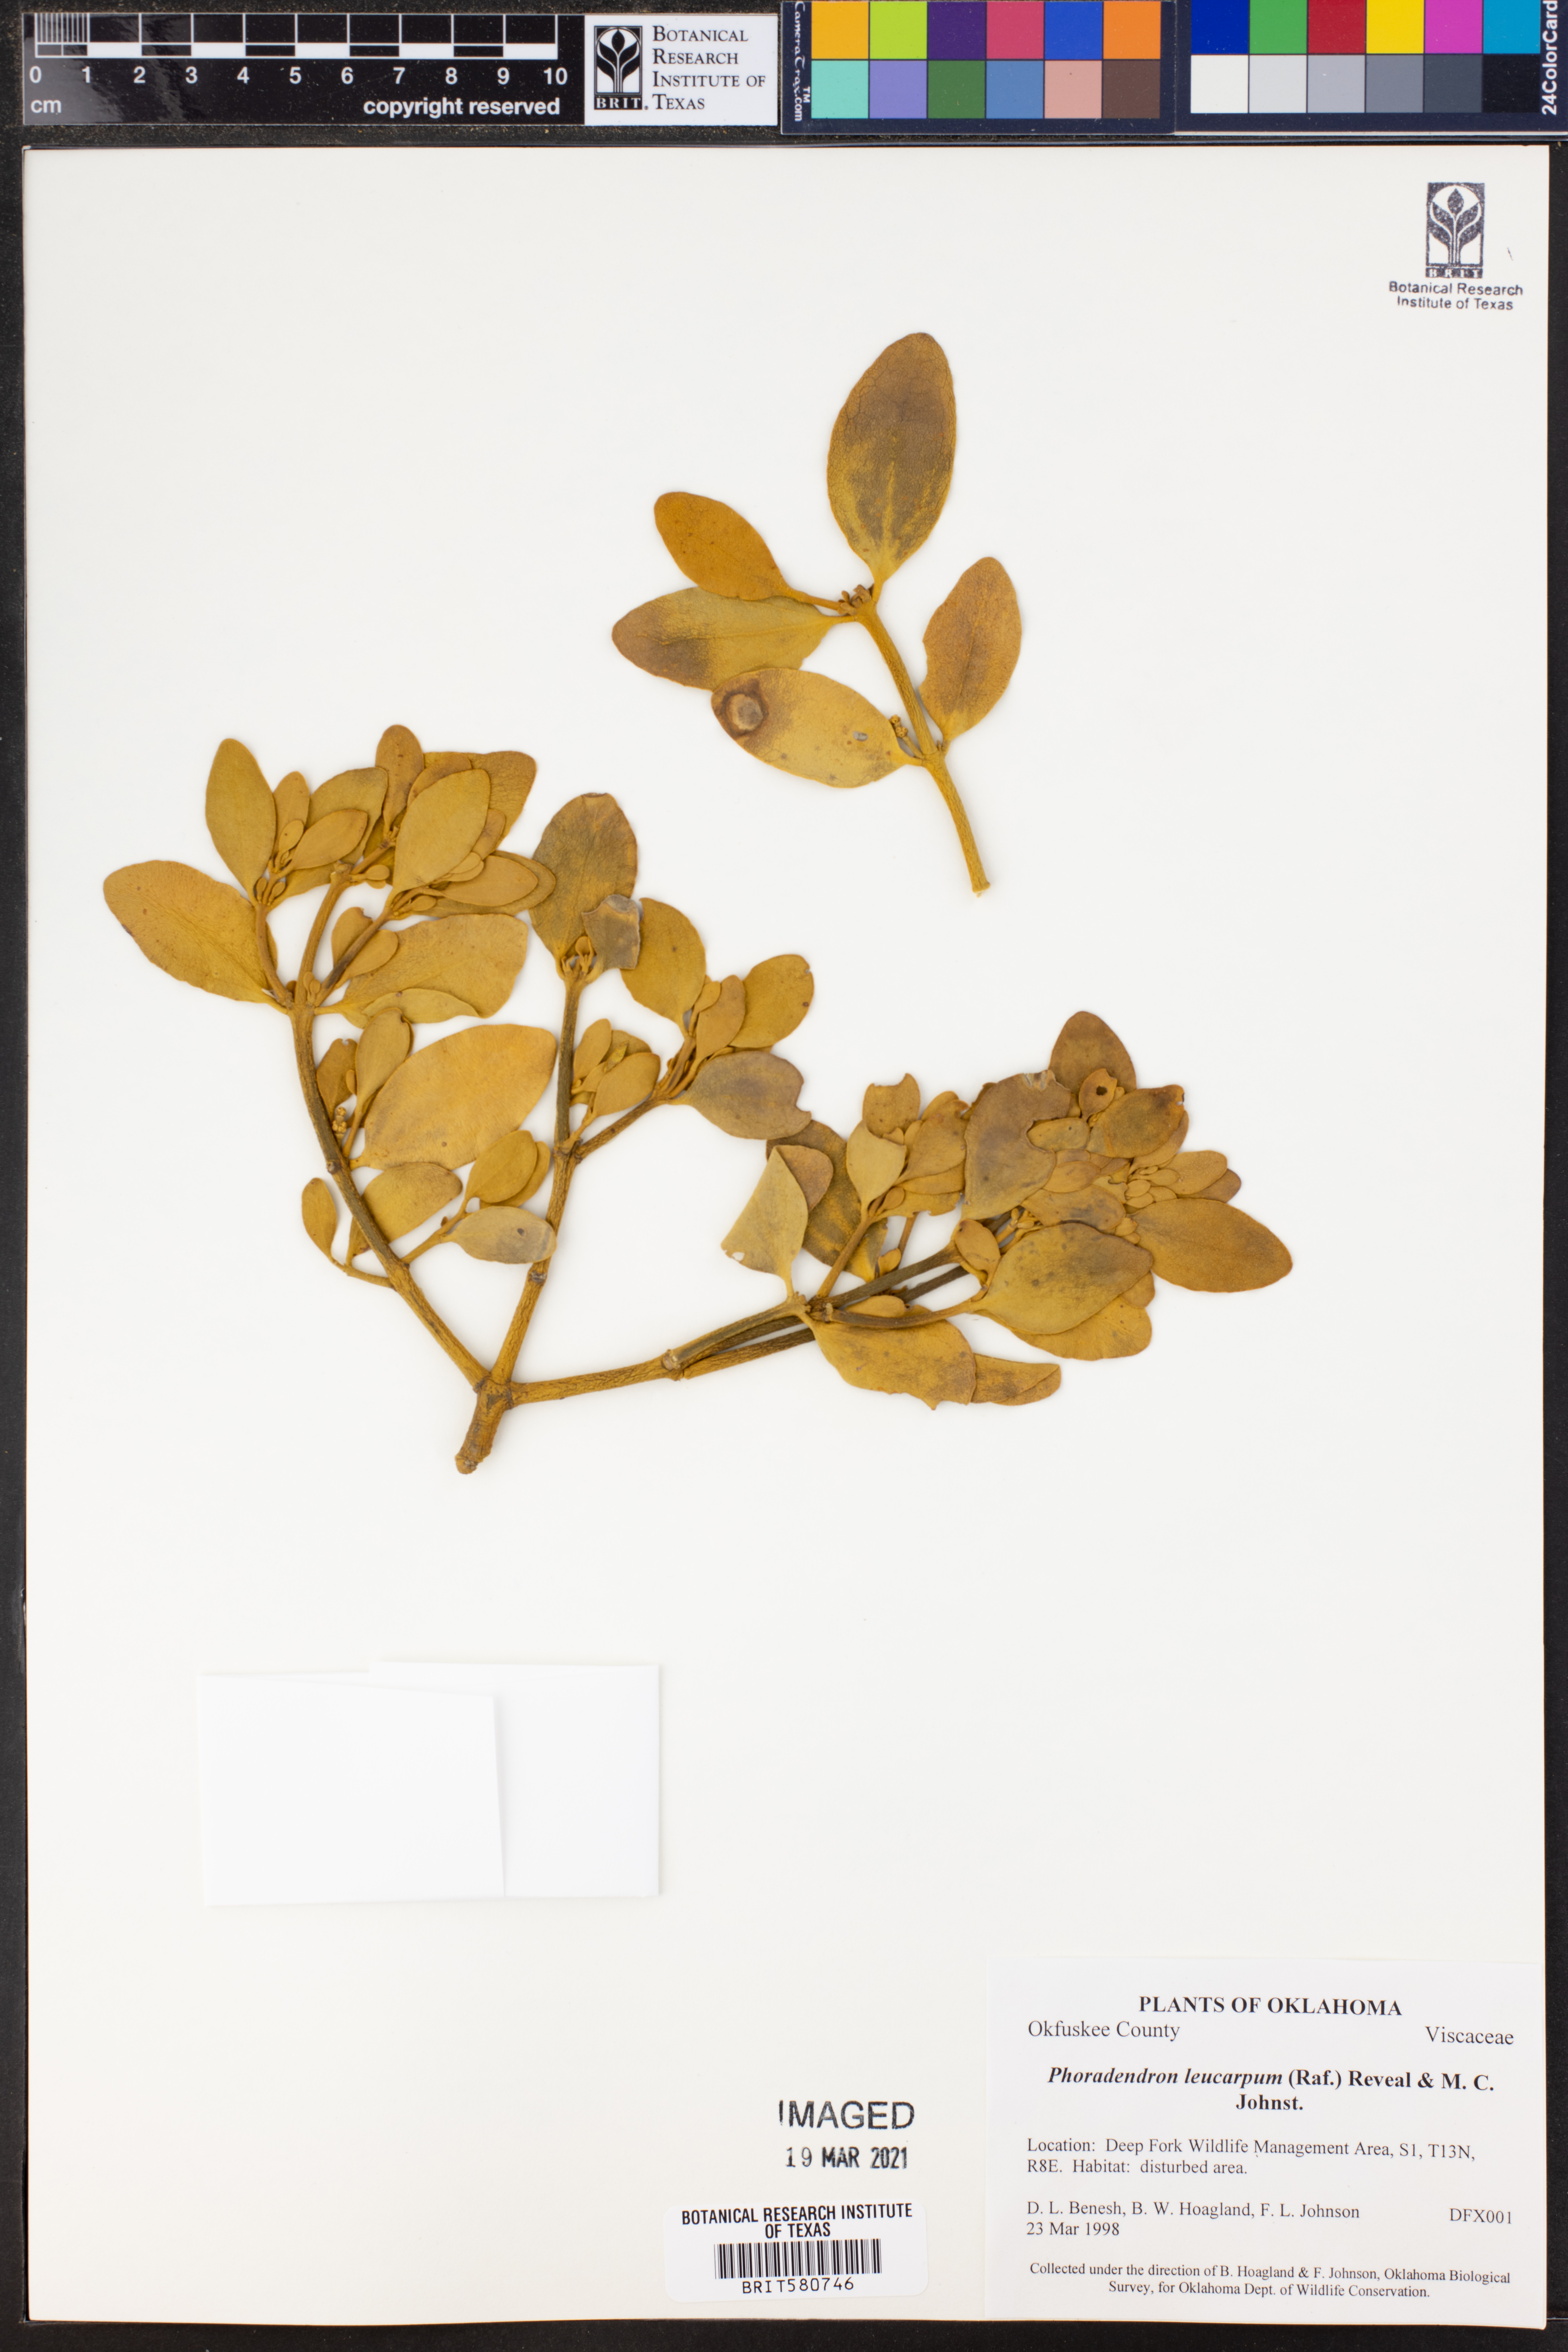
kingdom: Plantae
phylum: Tracheophyta
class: Magnoliopsida
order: Santalales
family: Viscaceae
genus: Phoradendron
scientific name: Phoradendron leucarpum
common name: Pacific mistletoe
